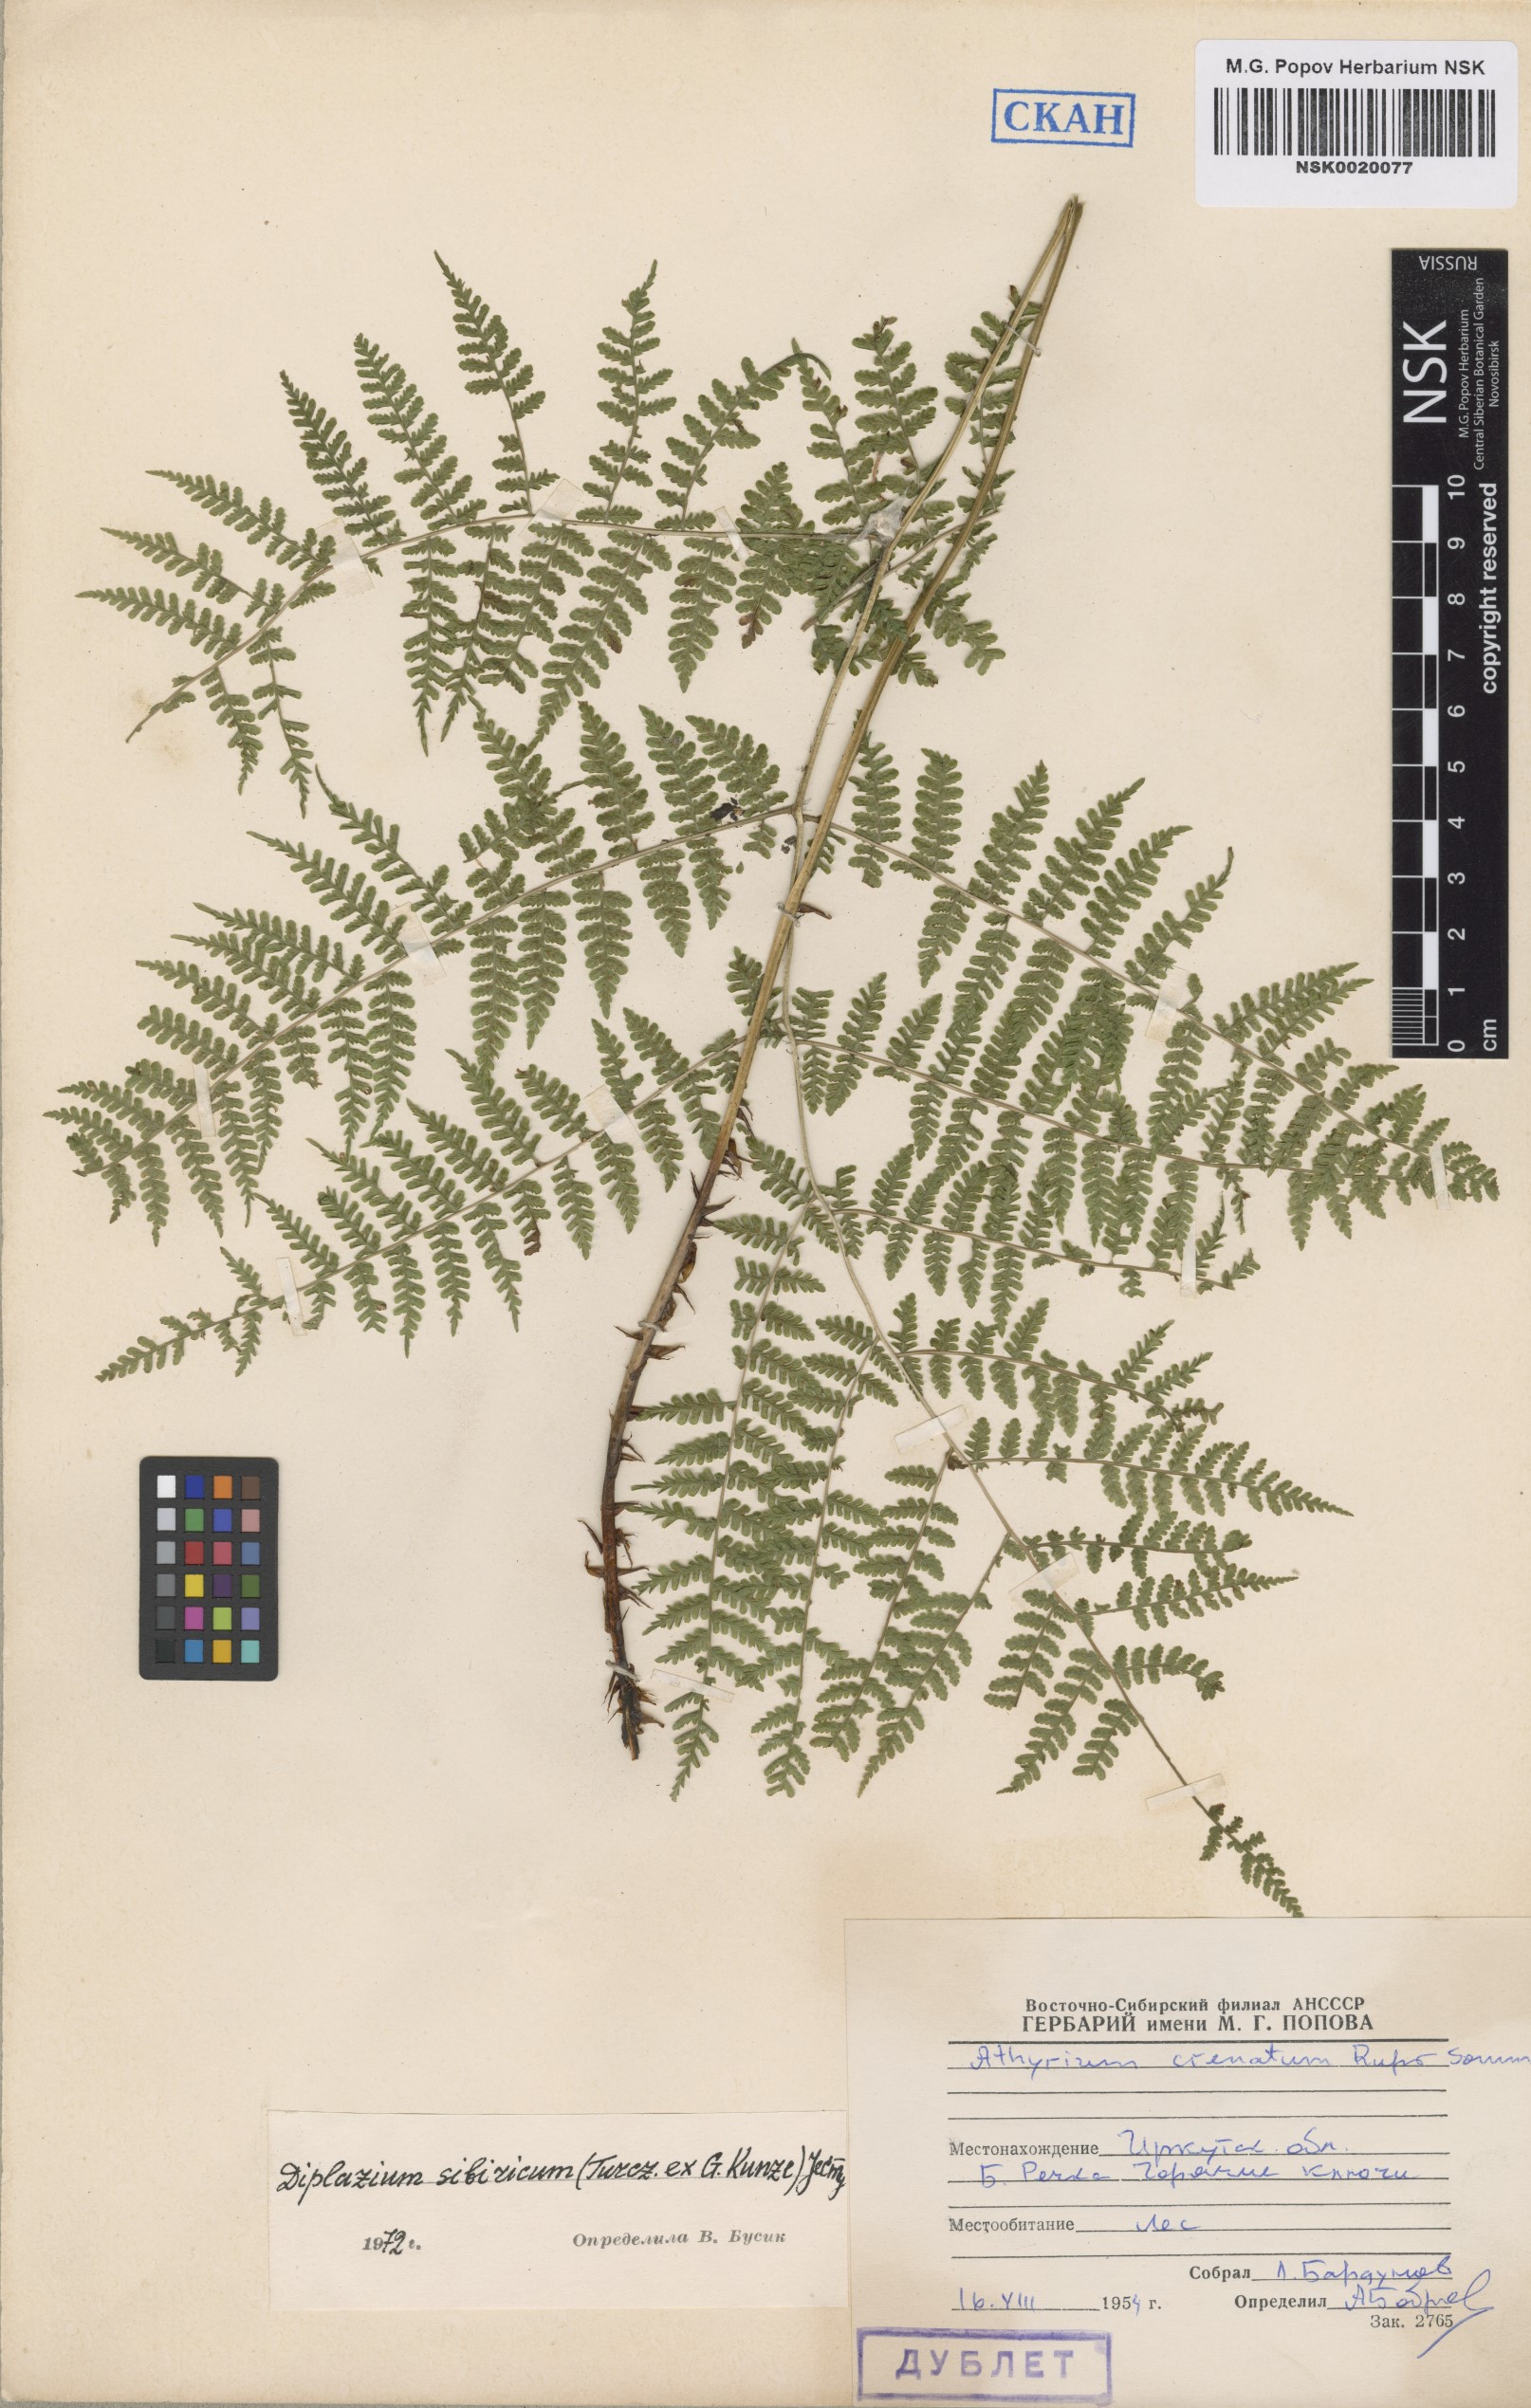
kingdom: Plantae
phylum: Tracheophyta
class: Polypodiopsida
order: Polypodiales
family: Athyriaceae
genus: Diplazium
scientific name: Diplazium sibiricum
